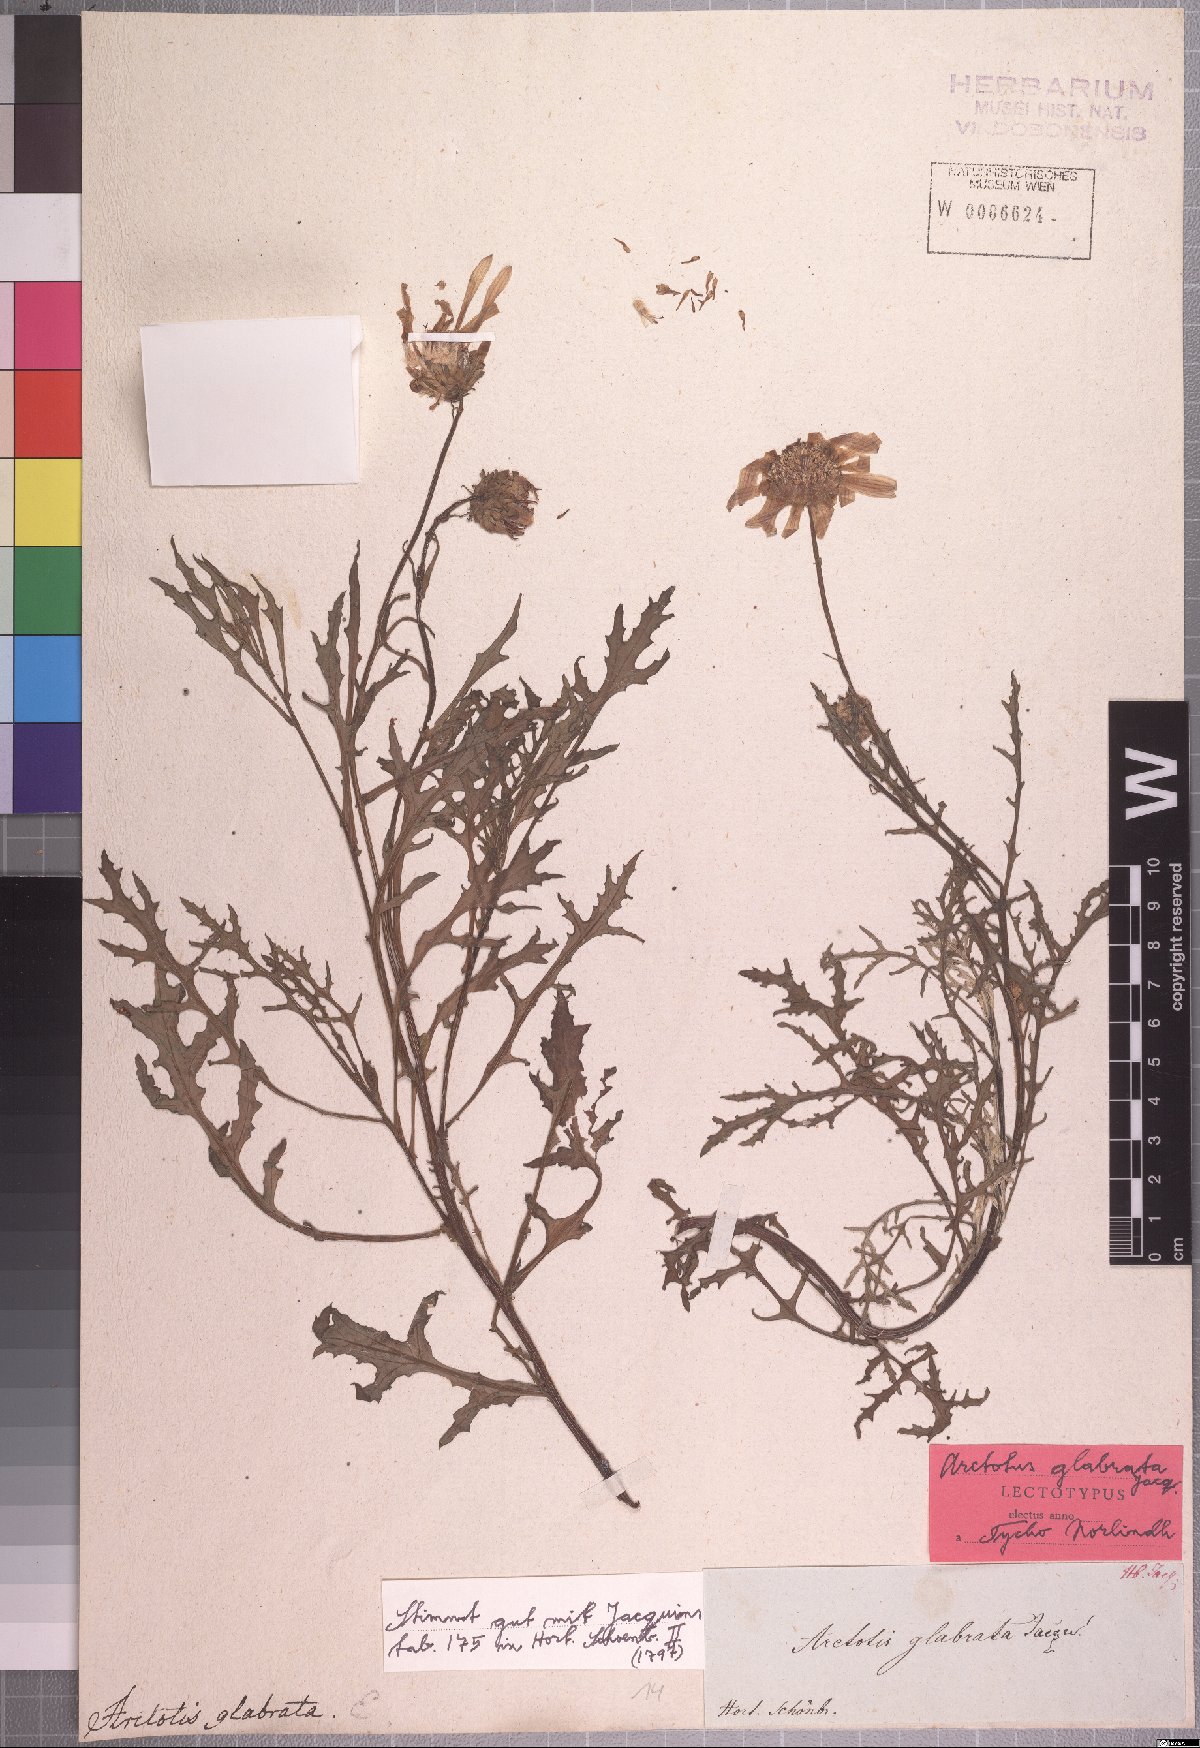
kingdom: Plantae
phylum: Tracheophyta
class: Magnoliopsida
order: Asterales
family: Asteraceae
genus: Arctotis
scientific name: Arctotis laciniata
